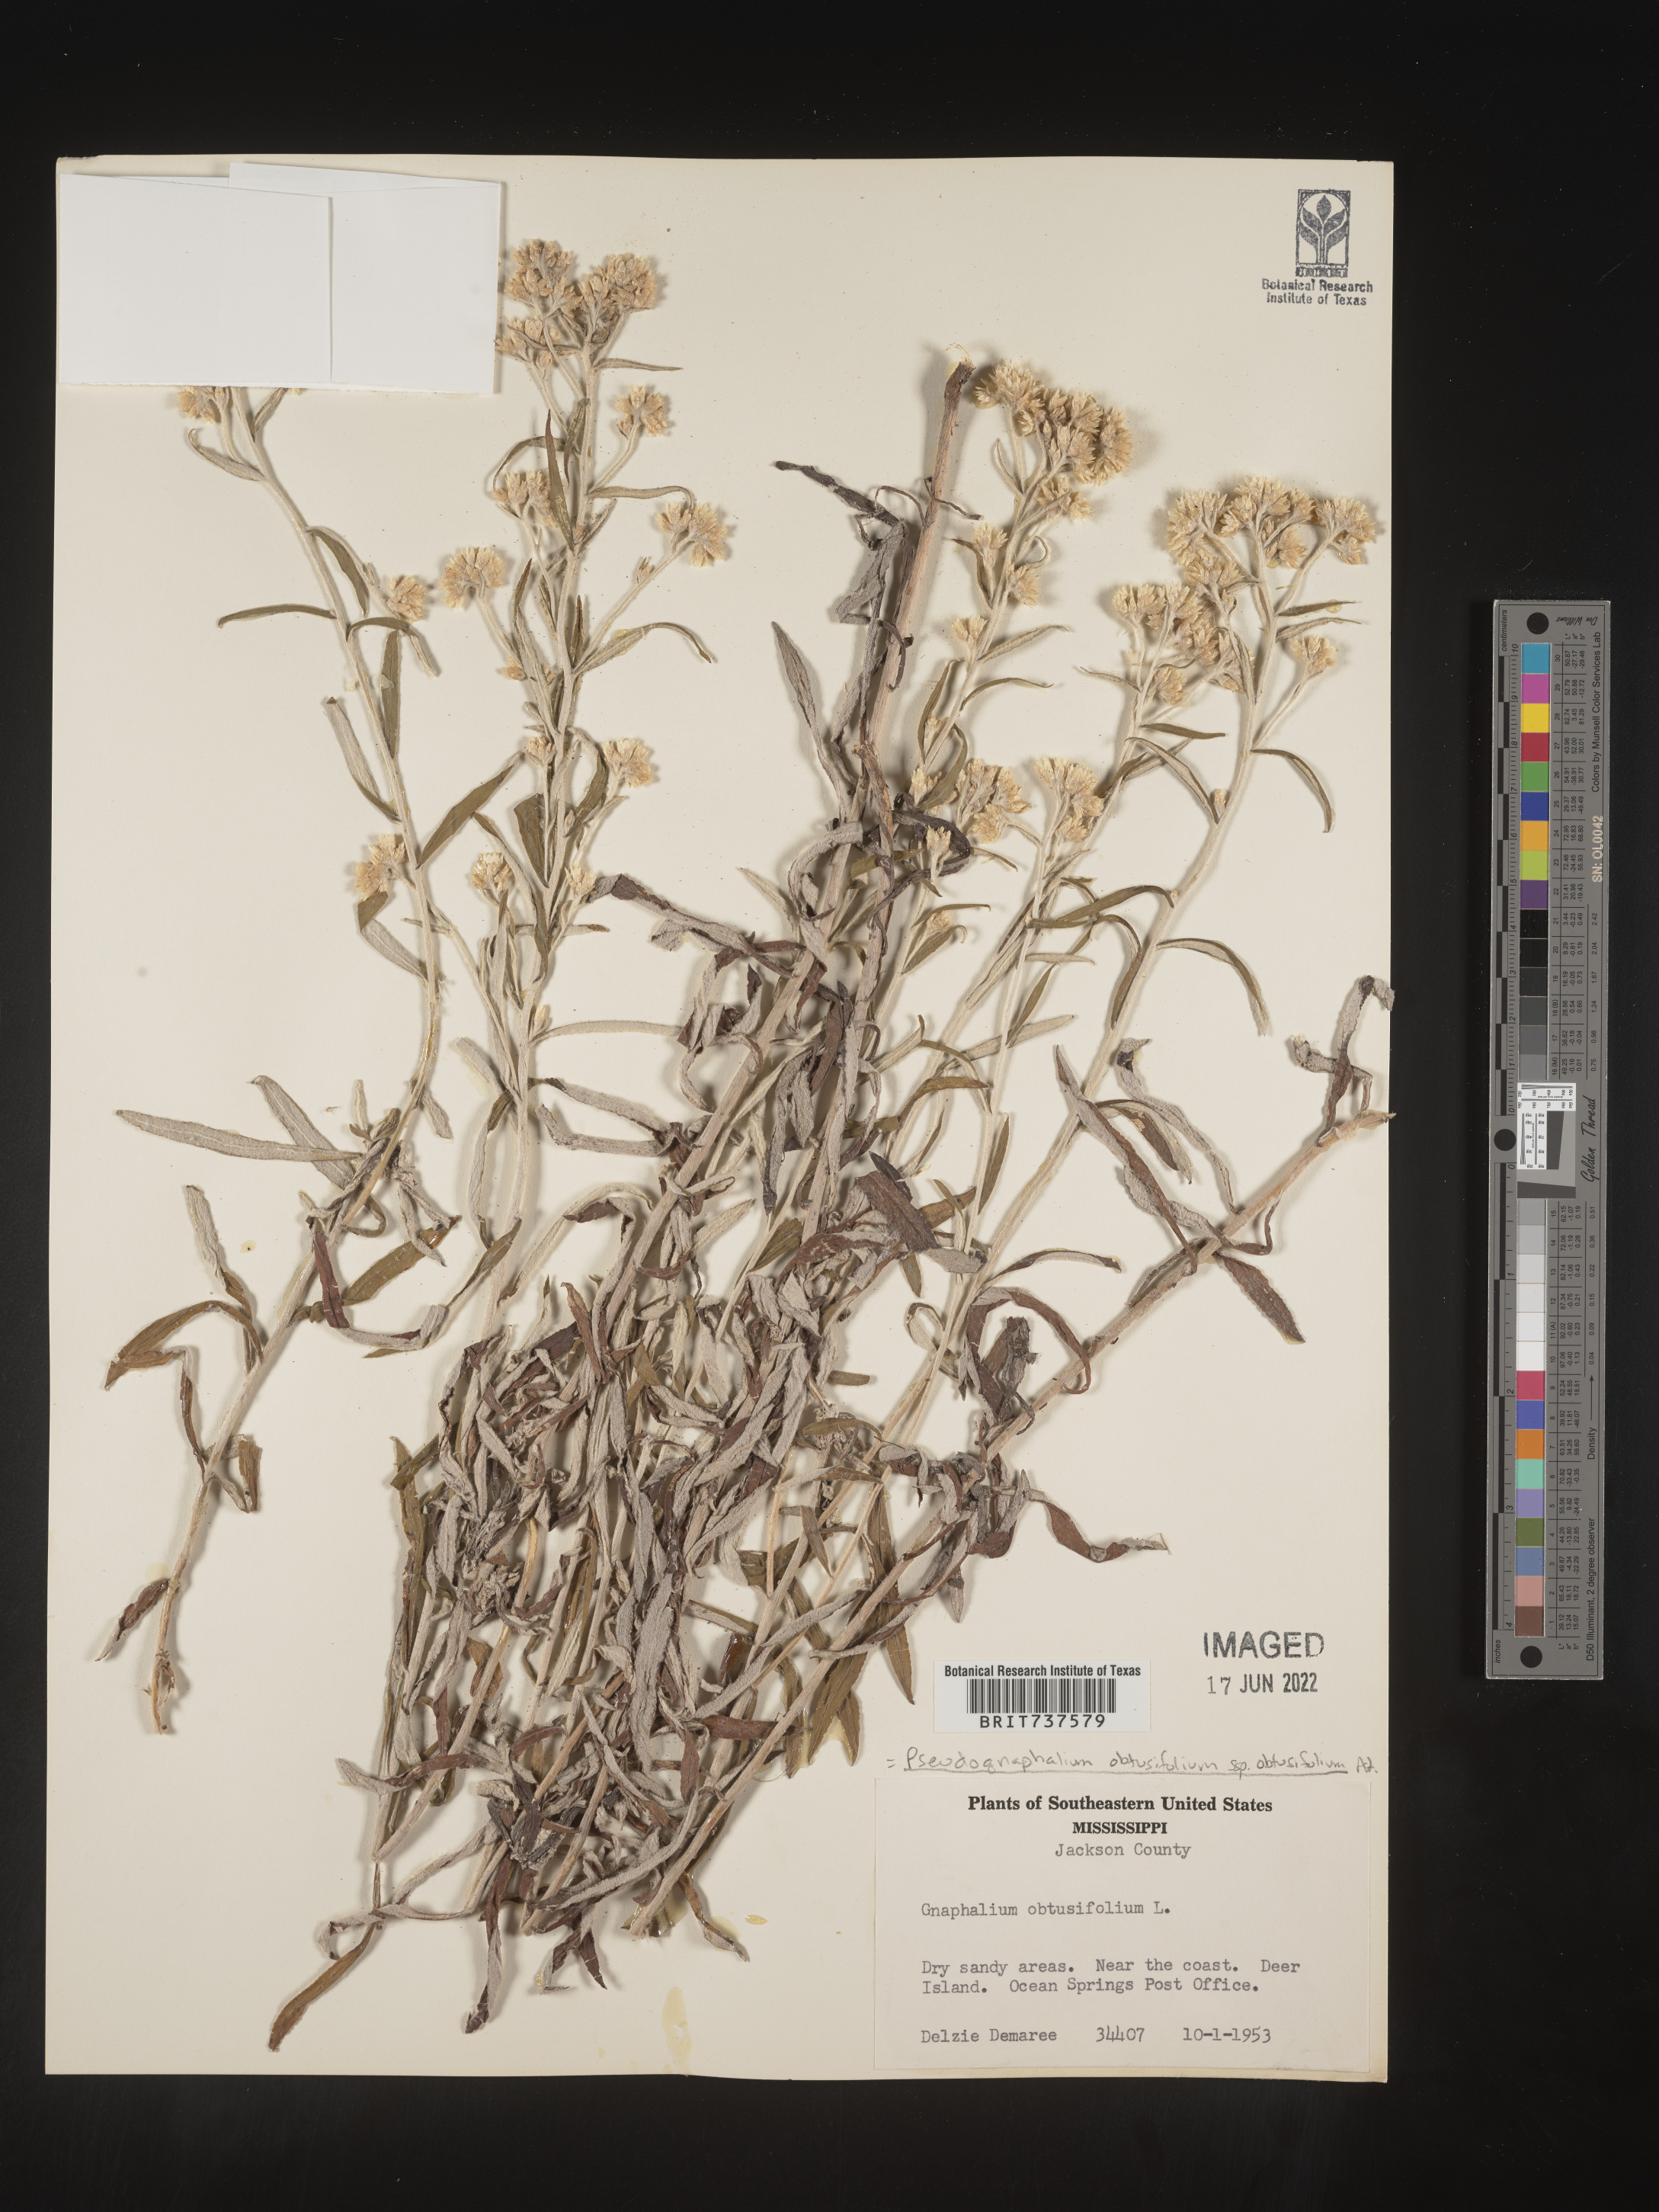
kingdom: Plantae
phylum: Tracheophyta
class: Magnoliopsida
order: Asterales
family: Asteraceae
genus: Pseudognaphalium
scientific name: Pseudognaphalium obtusifolium
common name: Eastern rabbit-tobacco
